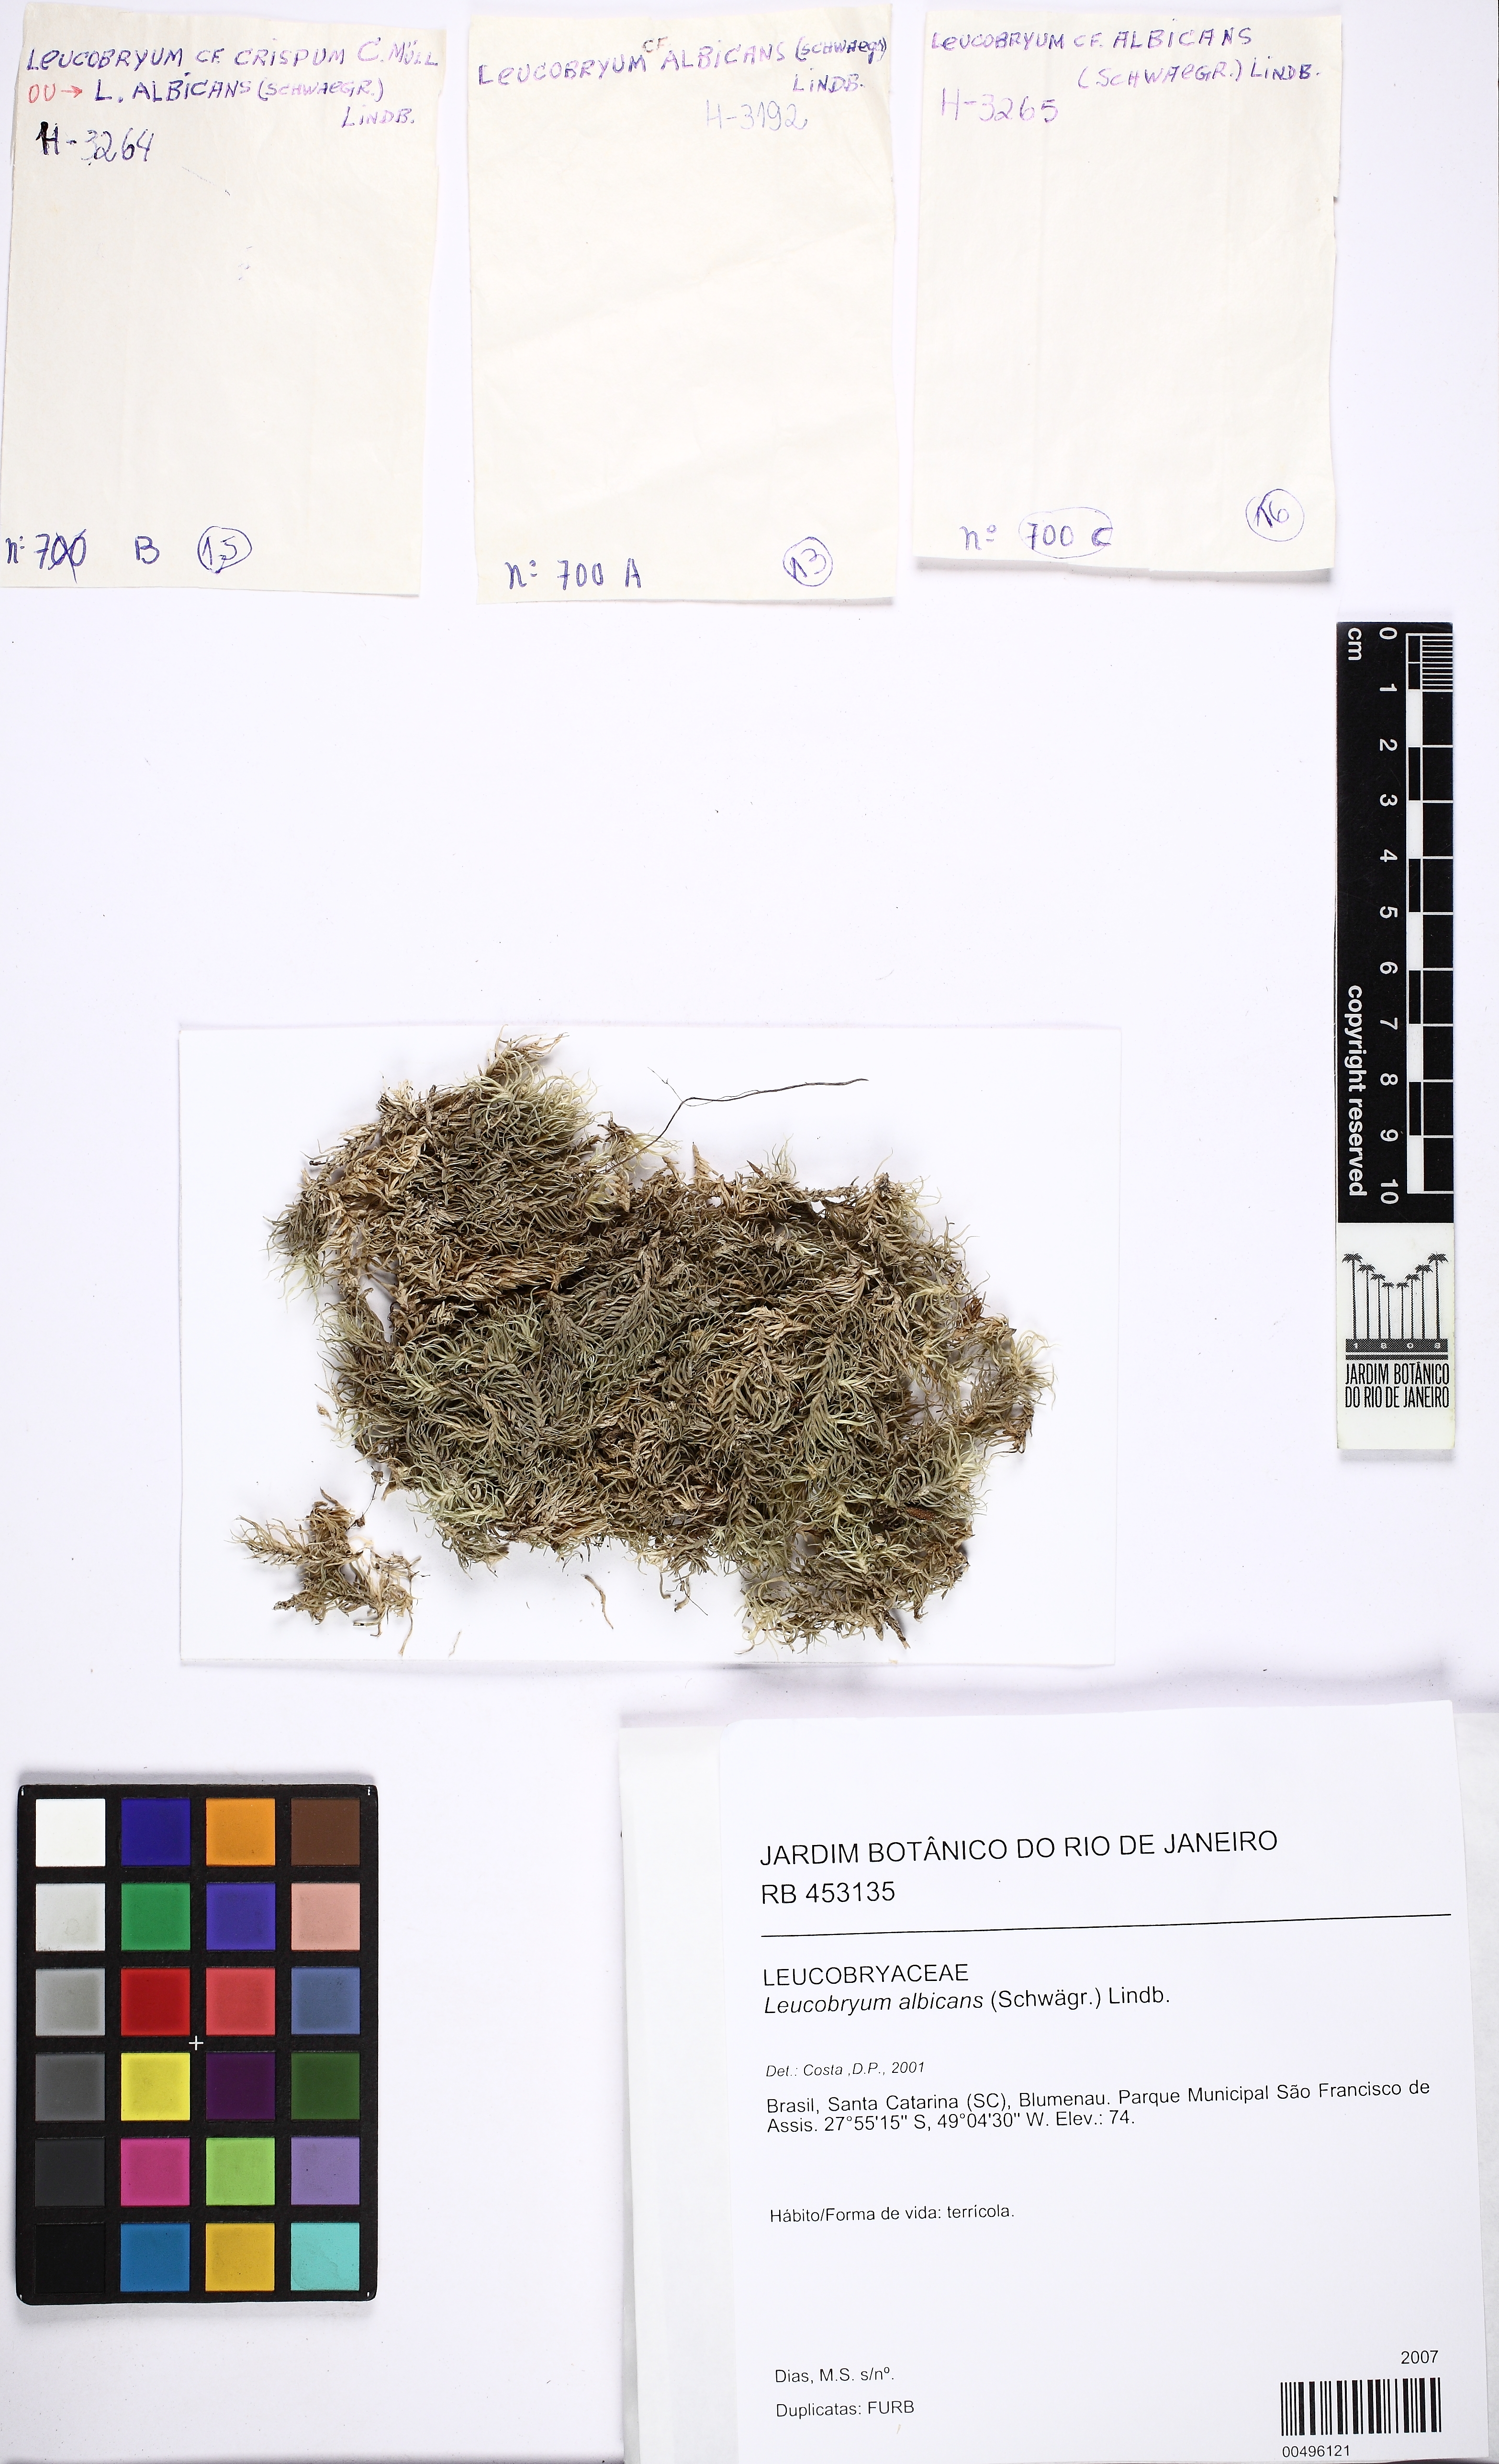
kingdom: Plantae
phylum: Bryophyta
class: Bryopsida
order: Dicranales
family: Leucobryaceae
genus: Leucobryum
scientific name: Leucobryum albicans
